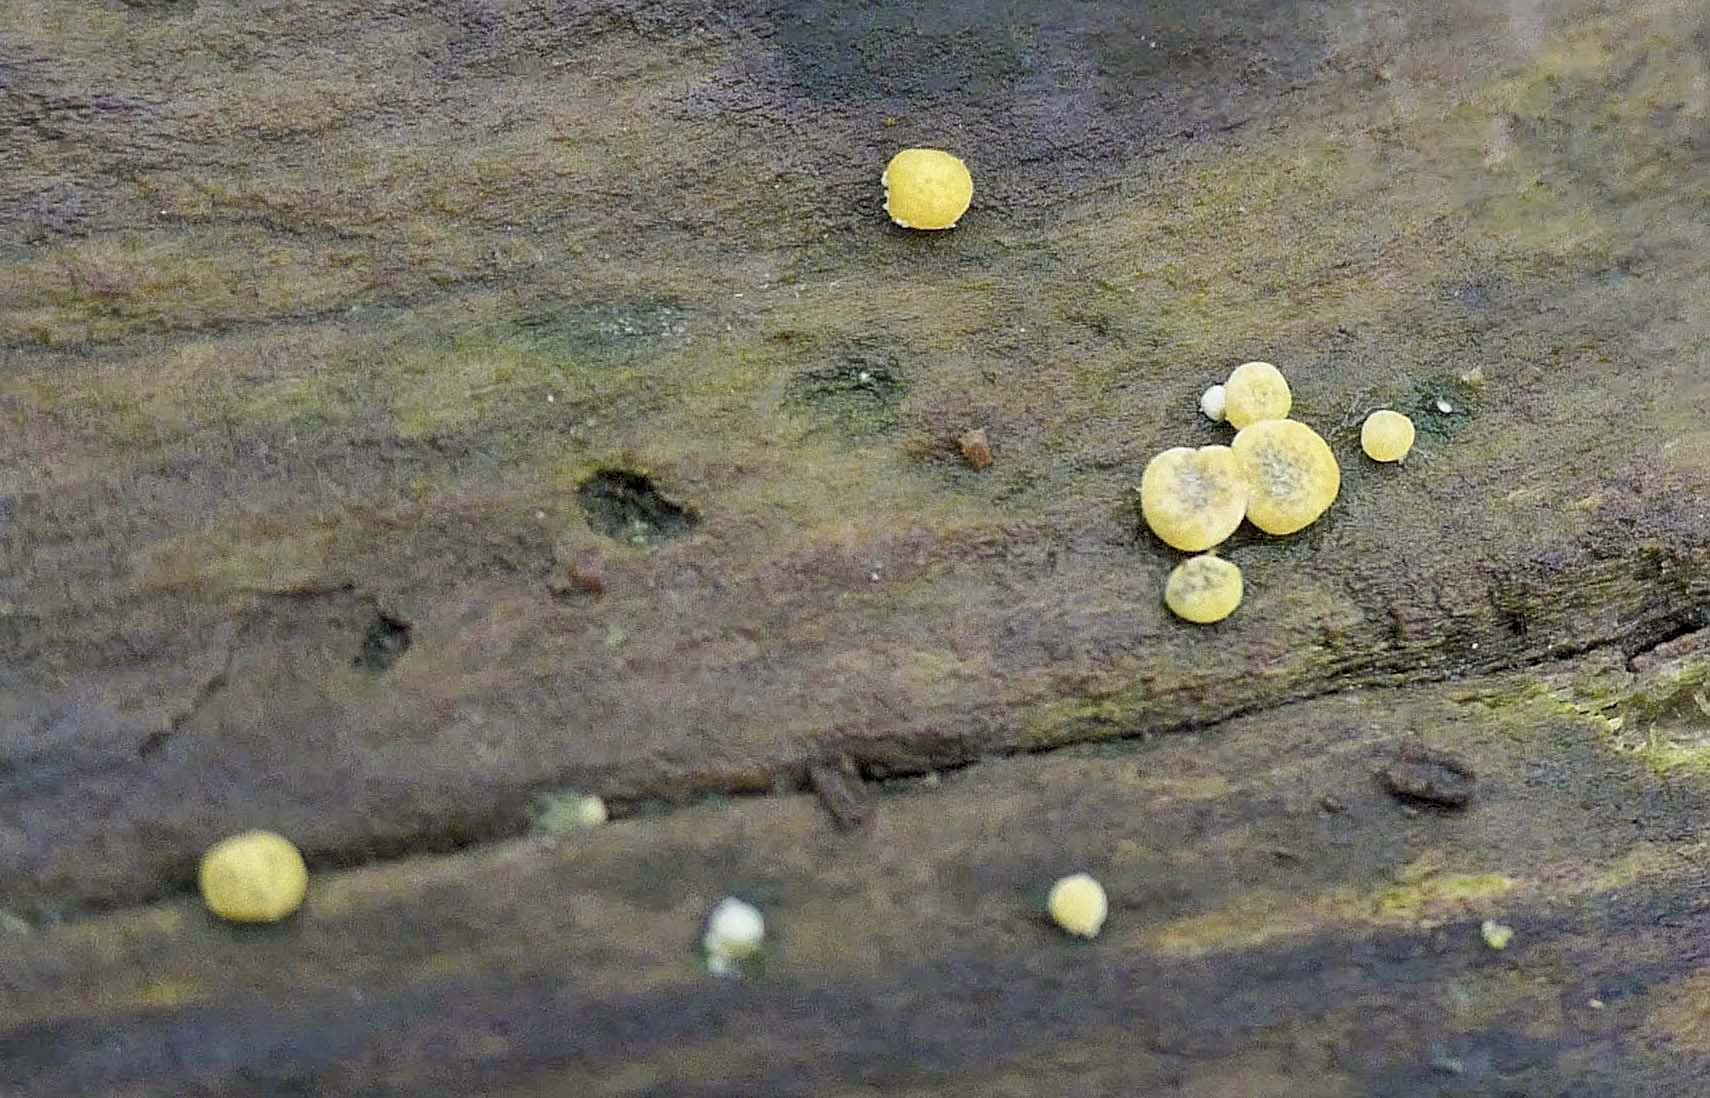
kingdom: Fungi
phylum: Ascomycota
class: Sordariomycetes
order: Hypocreales
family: Hypocreaceae
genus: Trichoderma
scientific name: Trichoderma aureoviride
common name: æggegul kødkerne
